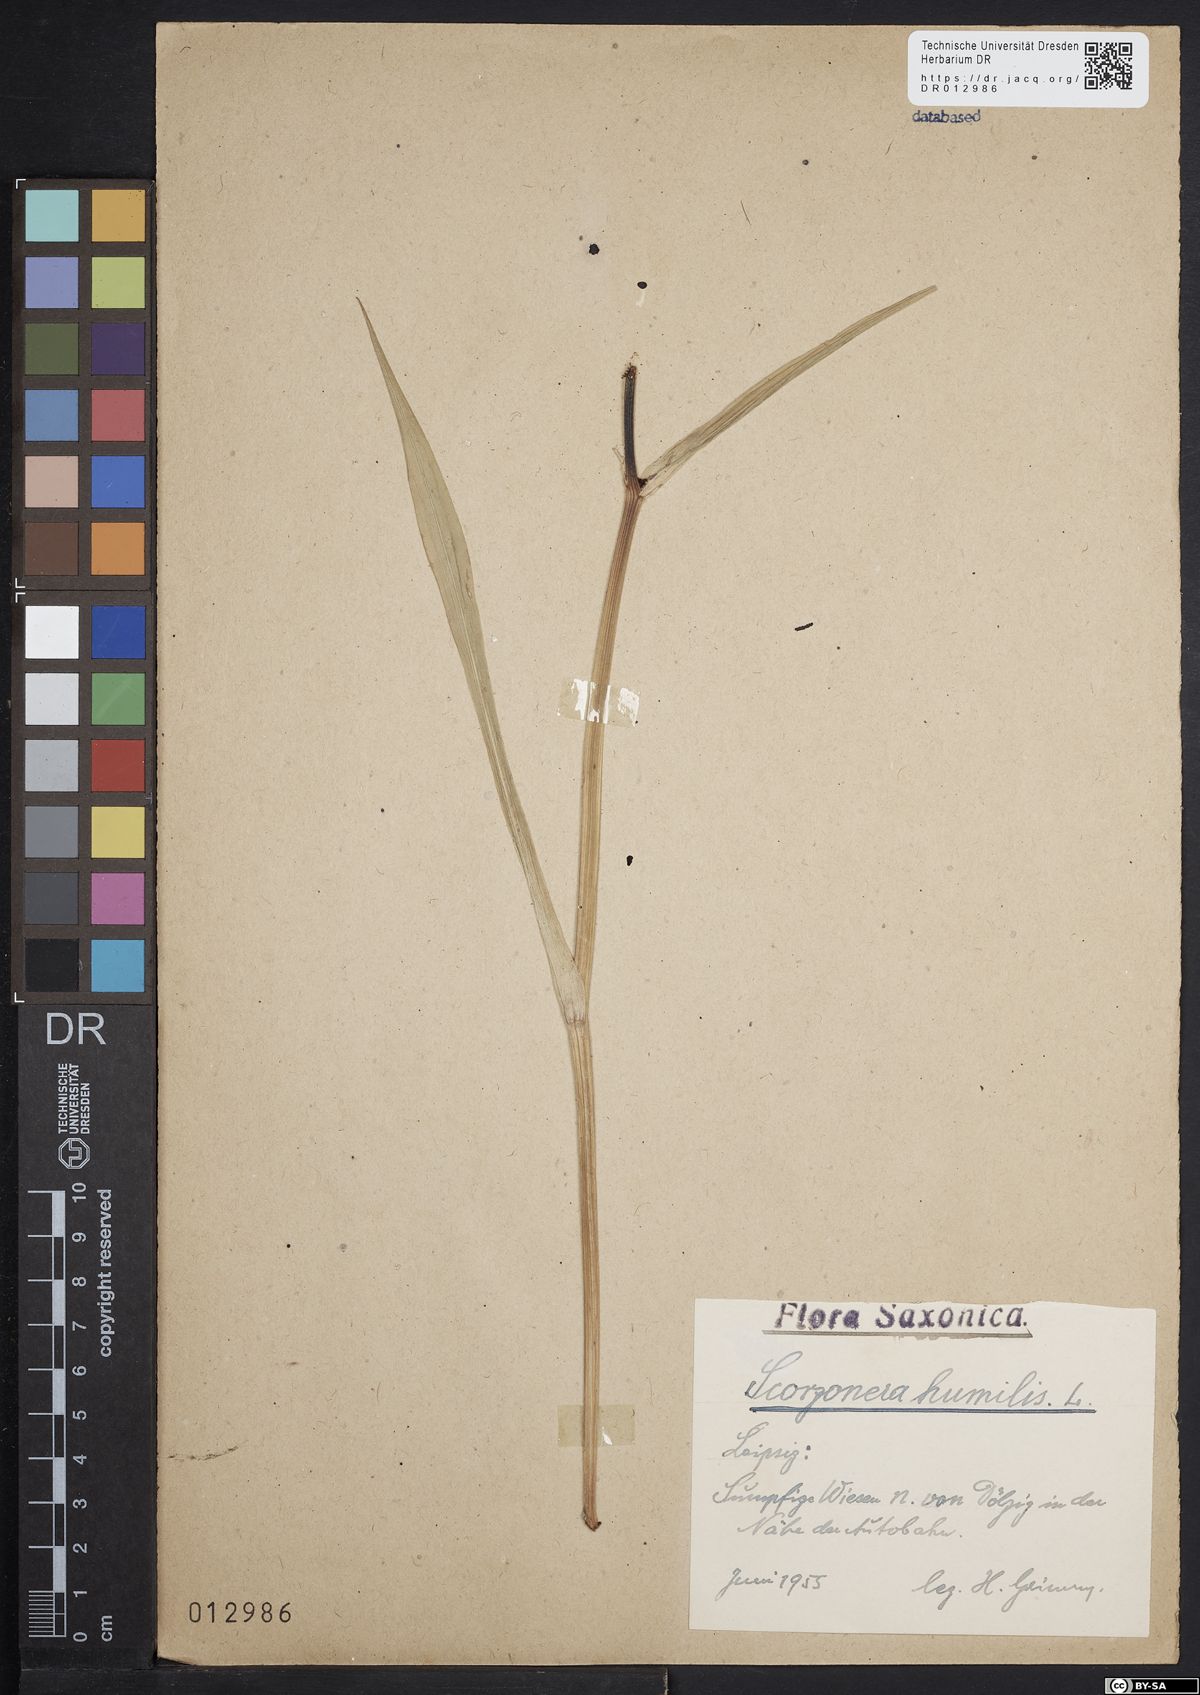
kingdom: Plantae
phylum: Tracheophyta
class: Magnoliopsida
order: Asterales
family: Asteraceae
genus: Scorzonera
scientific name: Scorzonera humilis
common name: Viper's-grass
